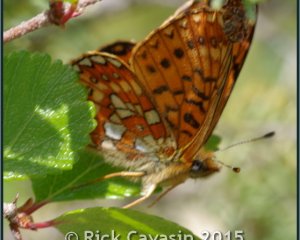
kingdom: Animalia
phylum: Arthropoda
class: Insecta
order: Lepidoptera
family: Nymphalidae
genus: Boloria
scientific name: Boloria eunomia
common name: Bog Fritillary
